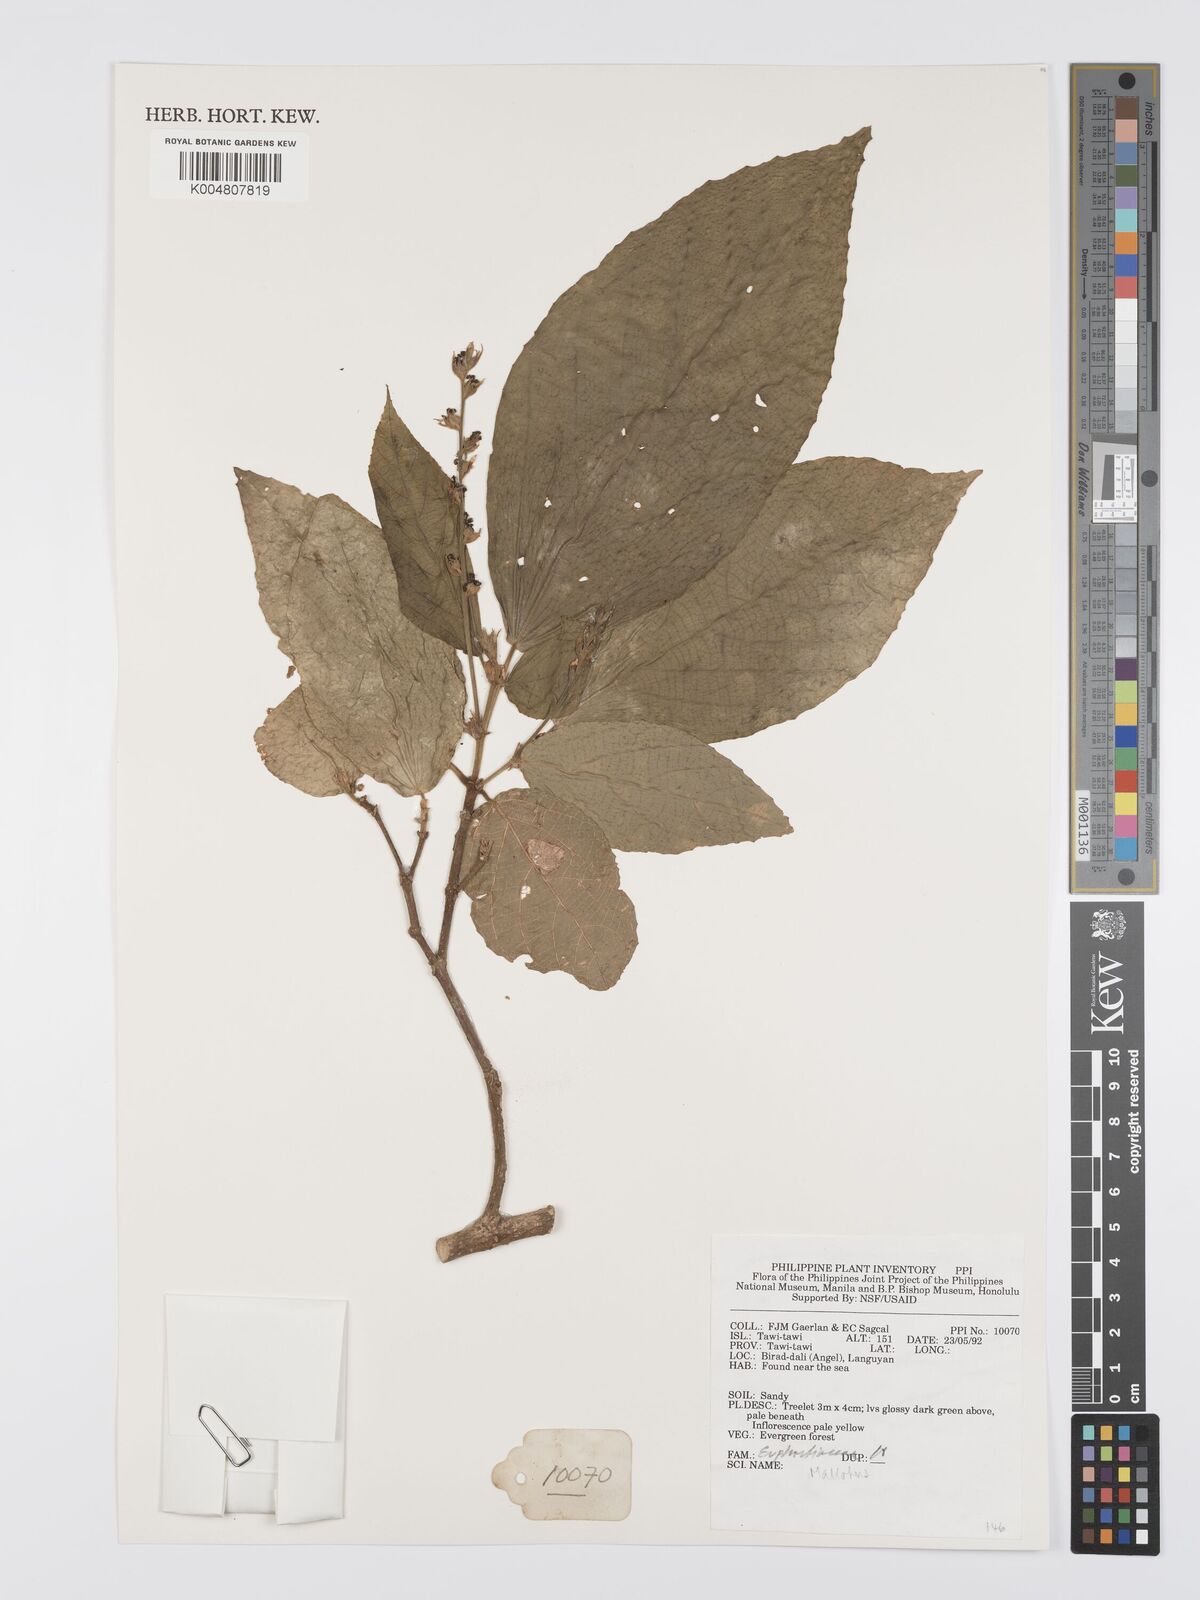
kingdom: Plantae
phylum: Tracheophyta
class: Magnoliopsida
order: Malpighiales
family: Euphorbiaceae
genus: Mallotus
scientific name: Mallotus
